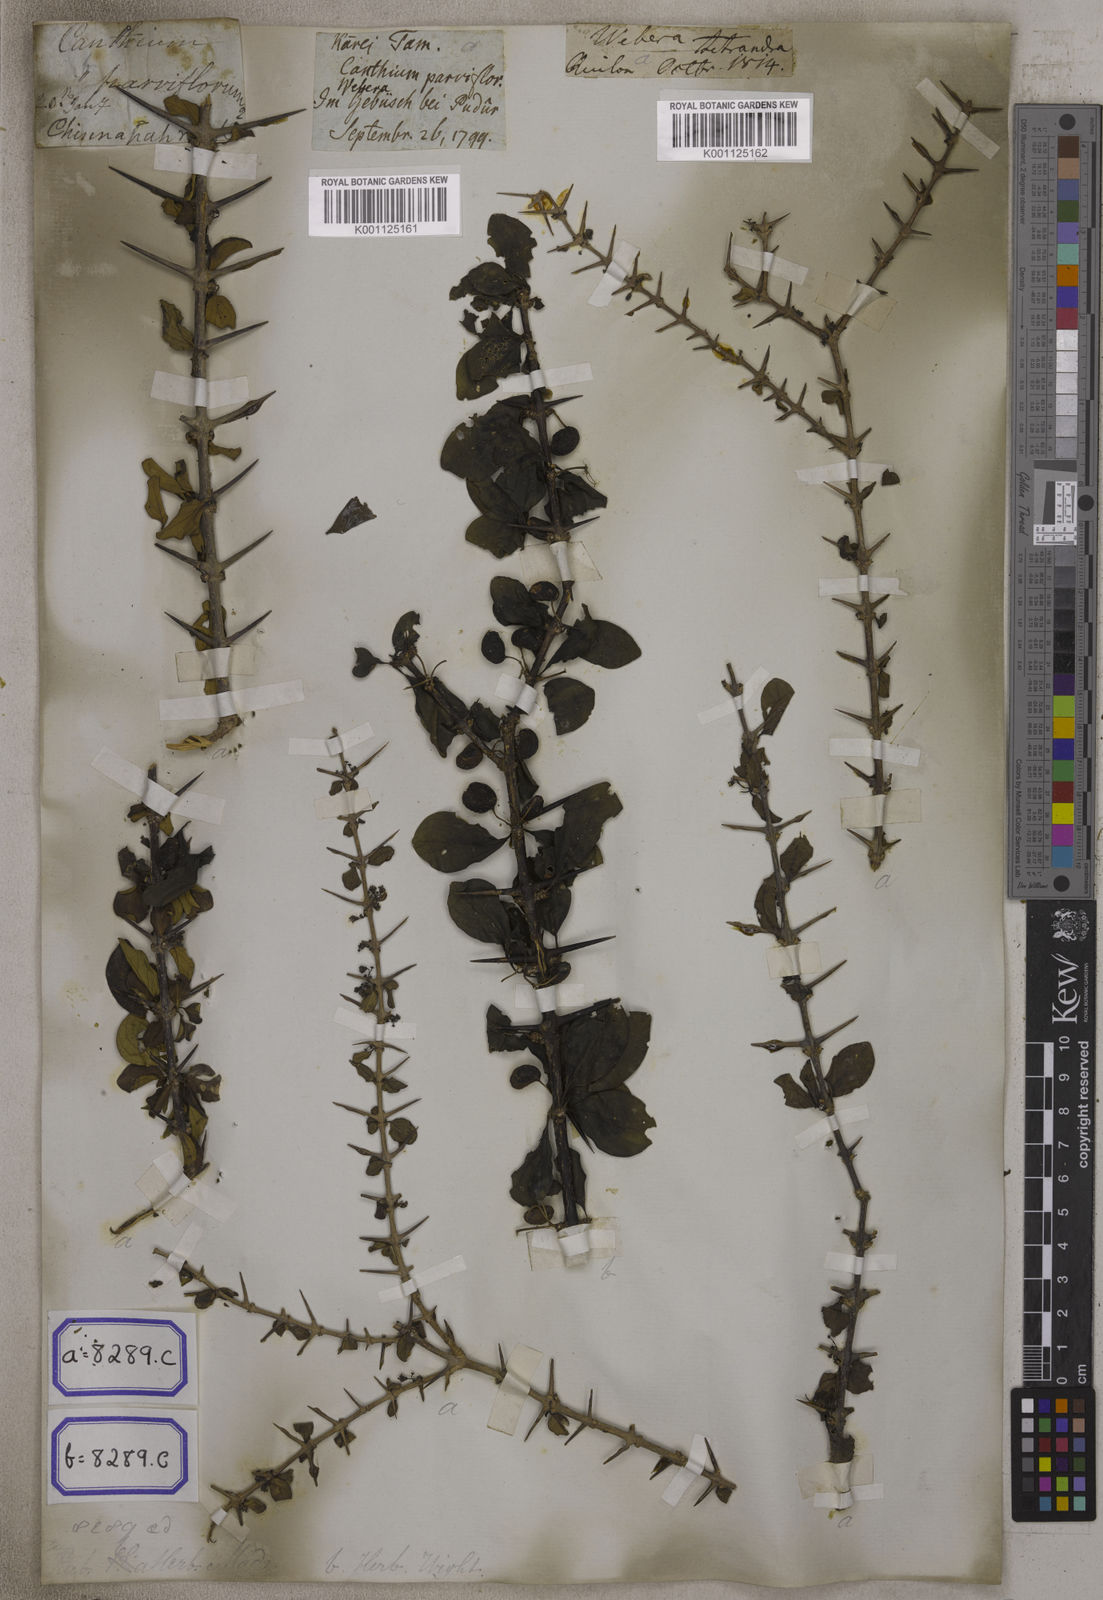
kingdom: Plantae
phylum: Tracheophyta
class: Magnoliopsida
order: Gentianales
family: Rubiaceae
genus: Canthium
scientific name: Canthium
